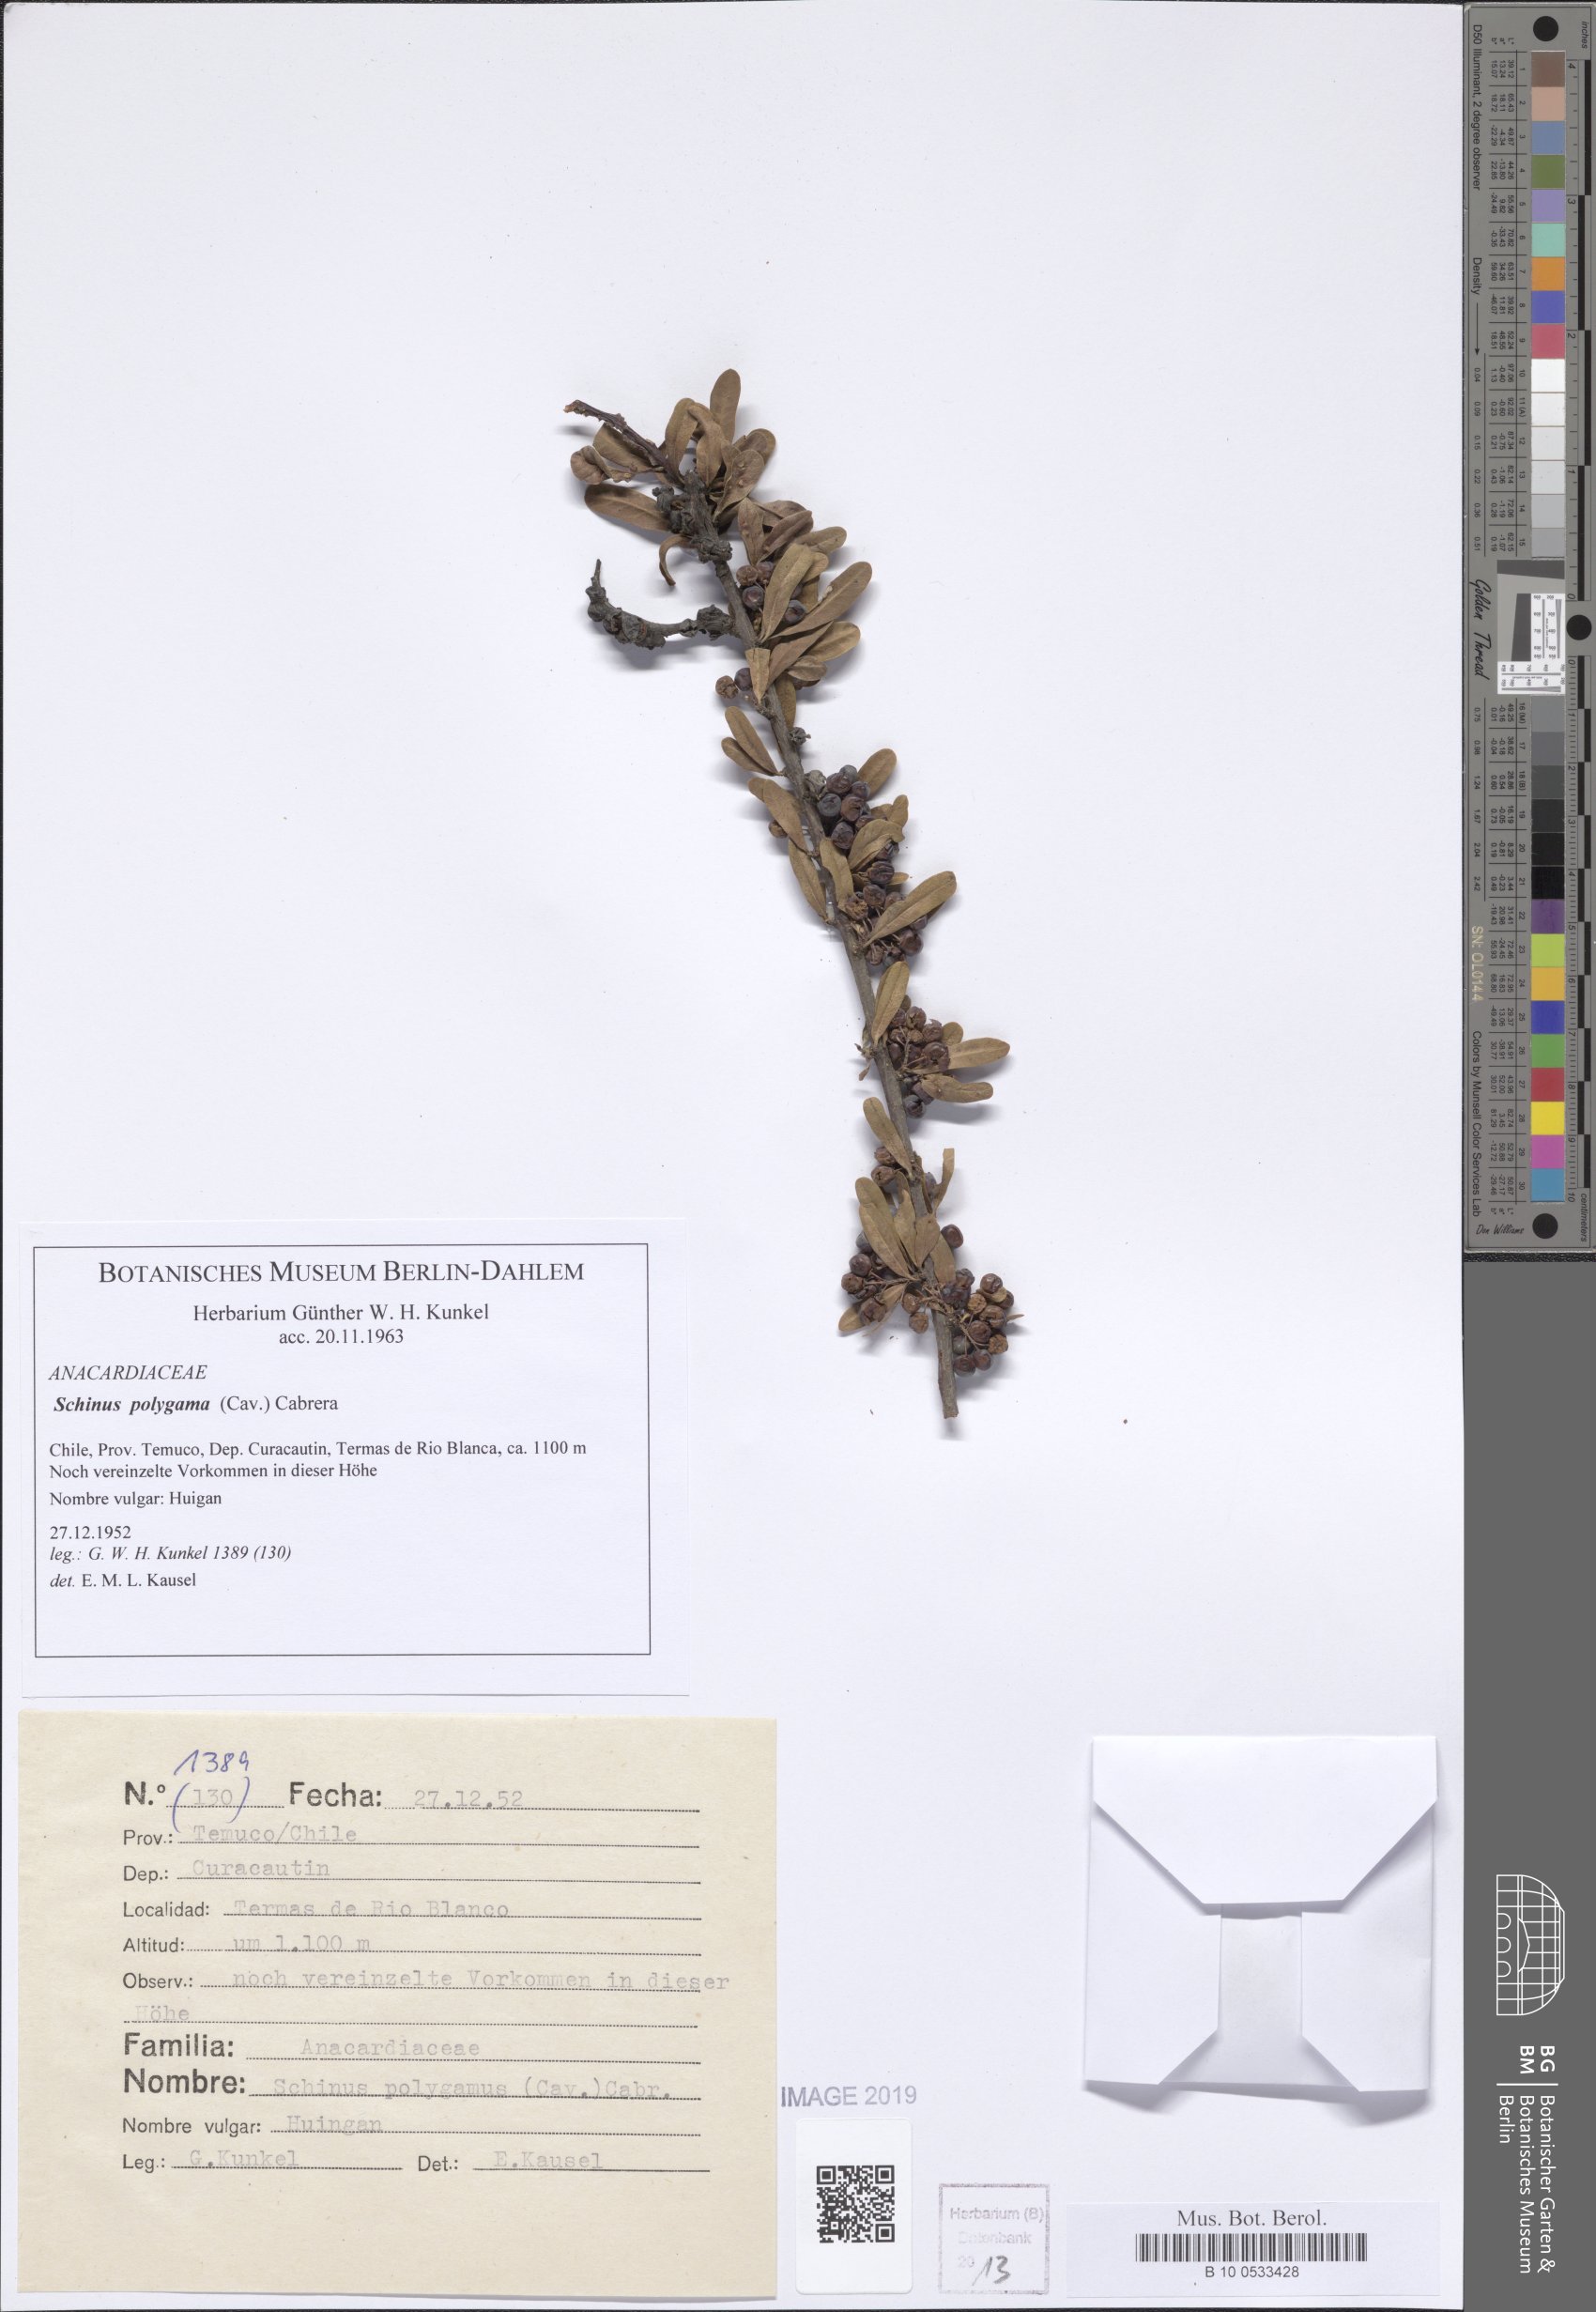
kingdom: Plantae
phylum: Tracheophyta
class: Magnoliopsida
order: Sapindales
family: Anacardiaceae
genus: Schinus
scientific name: Schinus polygama
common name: Hardee peppertree
